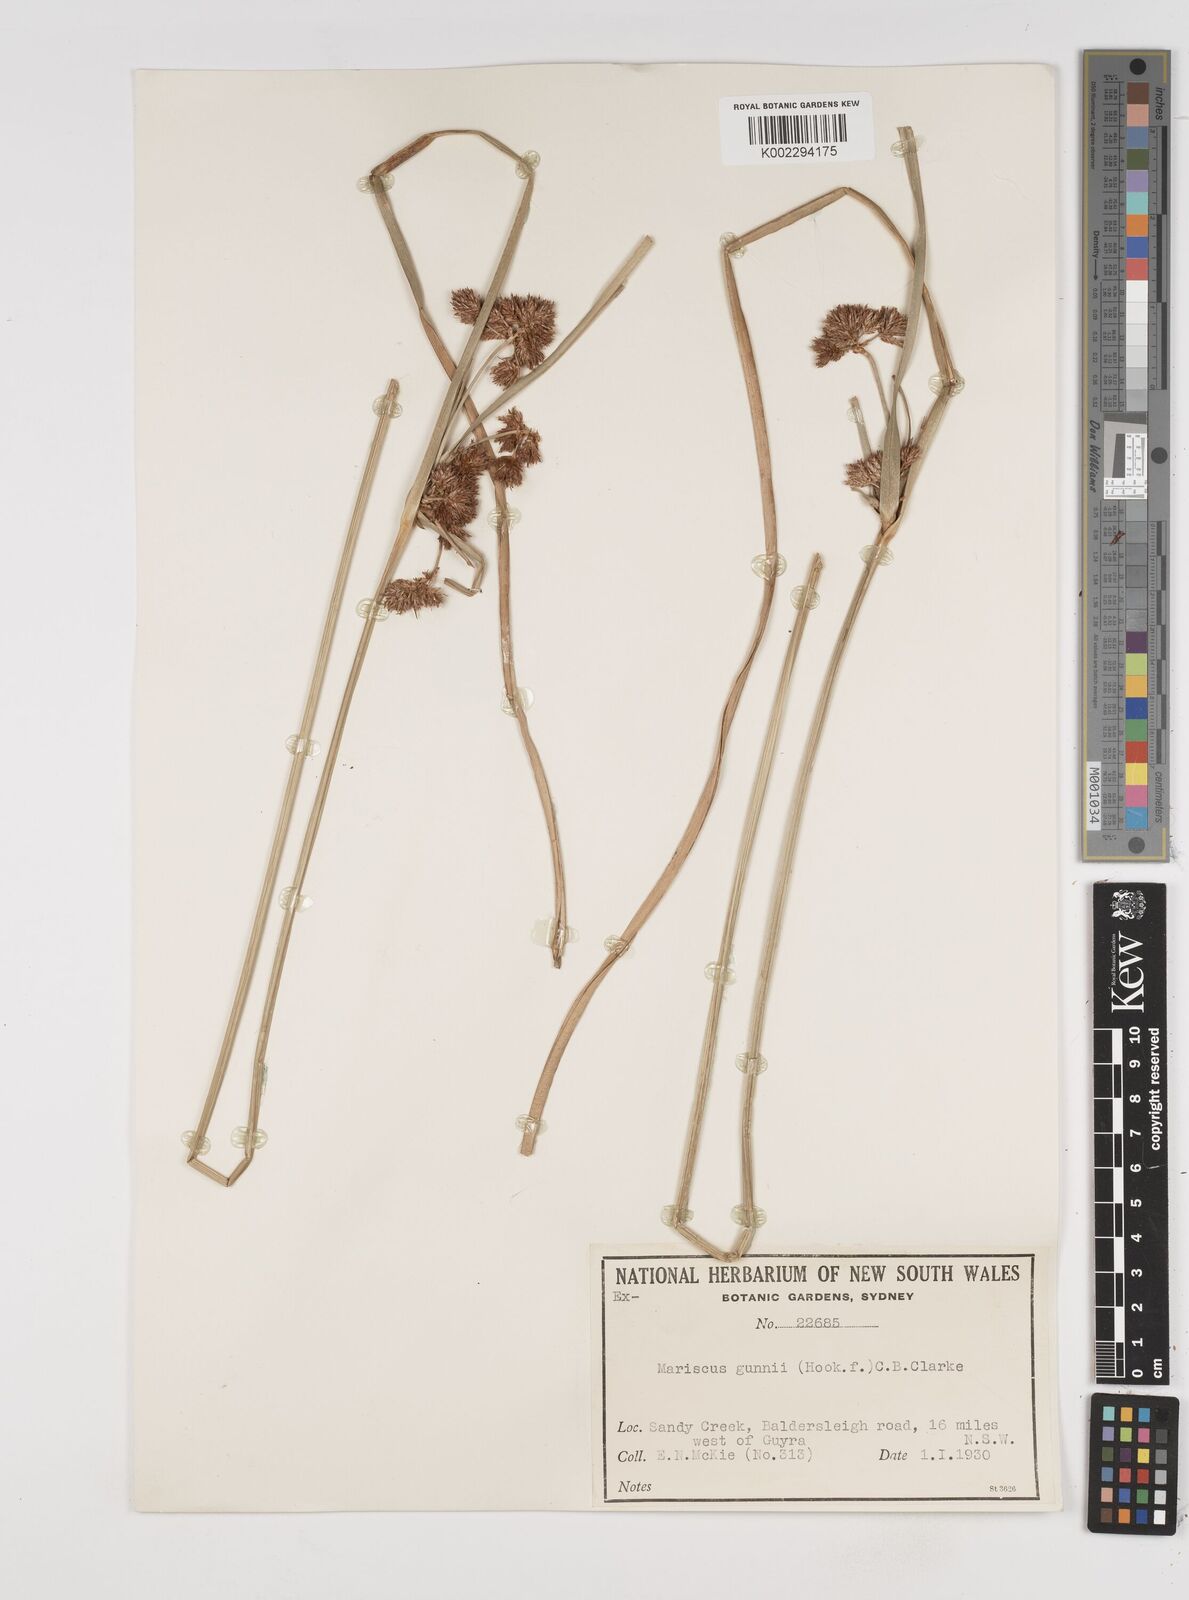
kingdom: Plantae
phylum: Tracheophyta
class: Liliopsida
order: Poales
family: Cyperaceae
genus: Cyperus
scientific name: Cyperus gunnii
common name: Flecked flat-sedge
